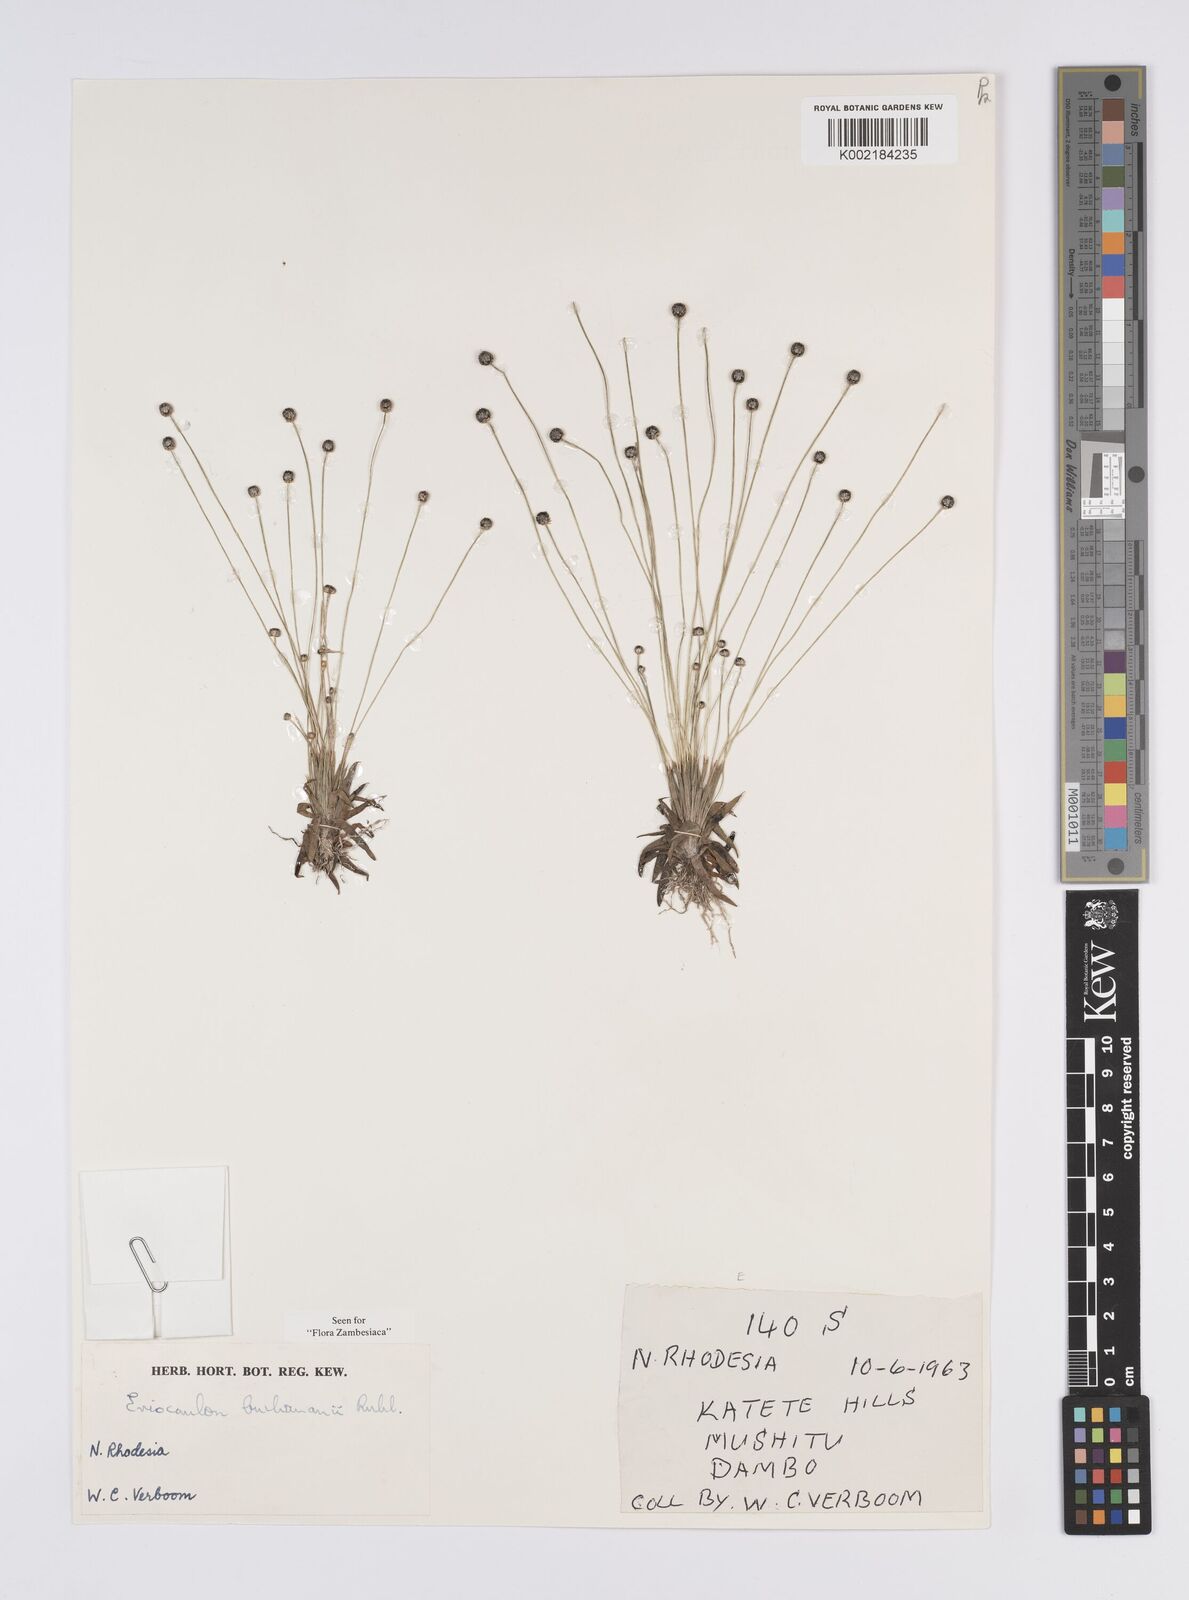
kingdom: Plantae
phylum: Tracheophyta
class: Liliopsida
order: Poales
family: Eriocaulaceae
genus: Eriocaulon
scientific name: Eriocaulon buchananii
